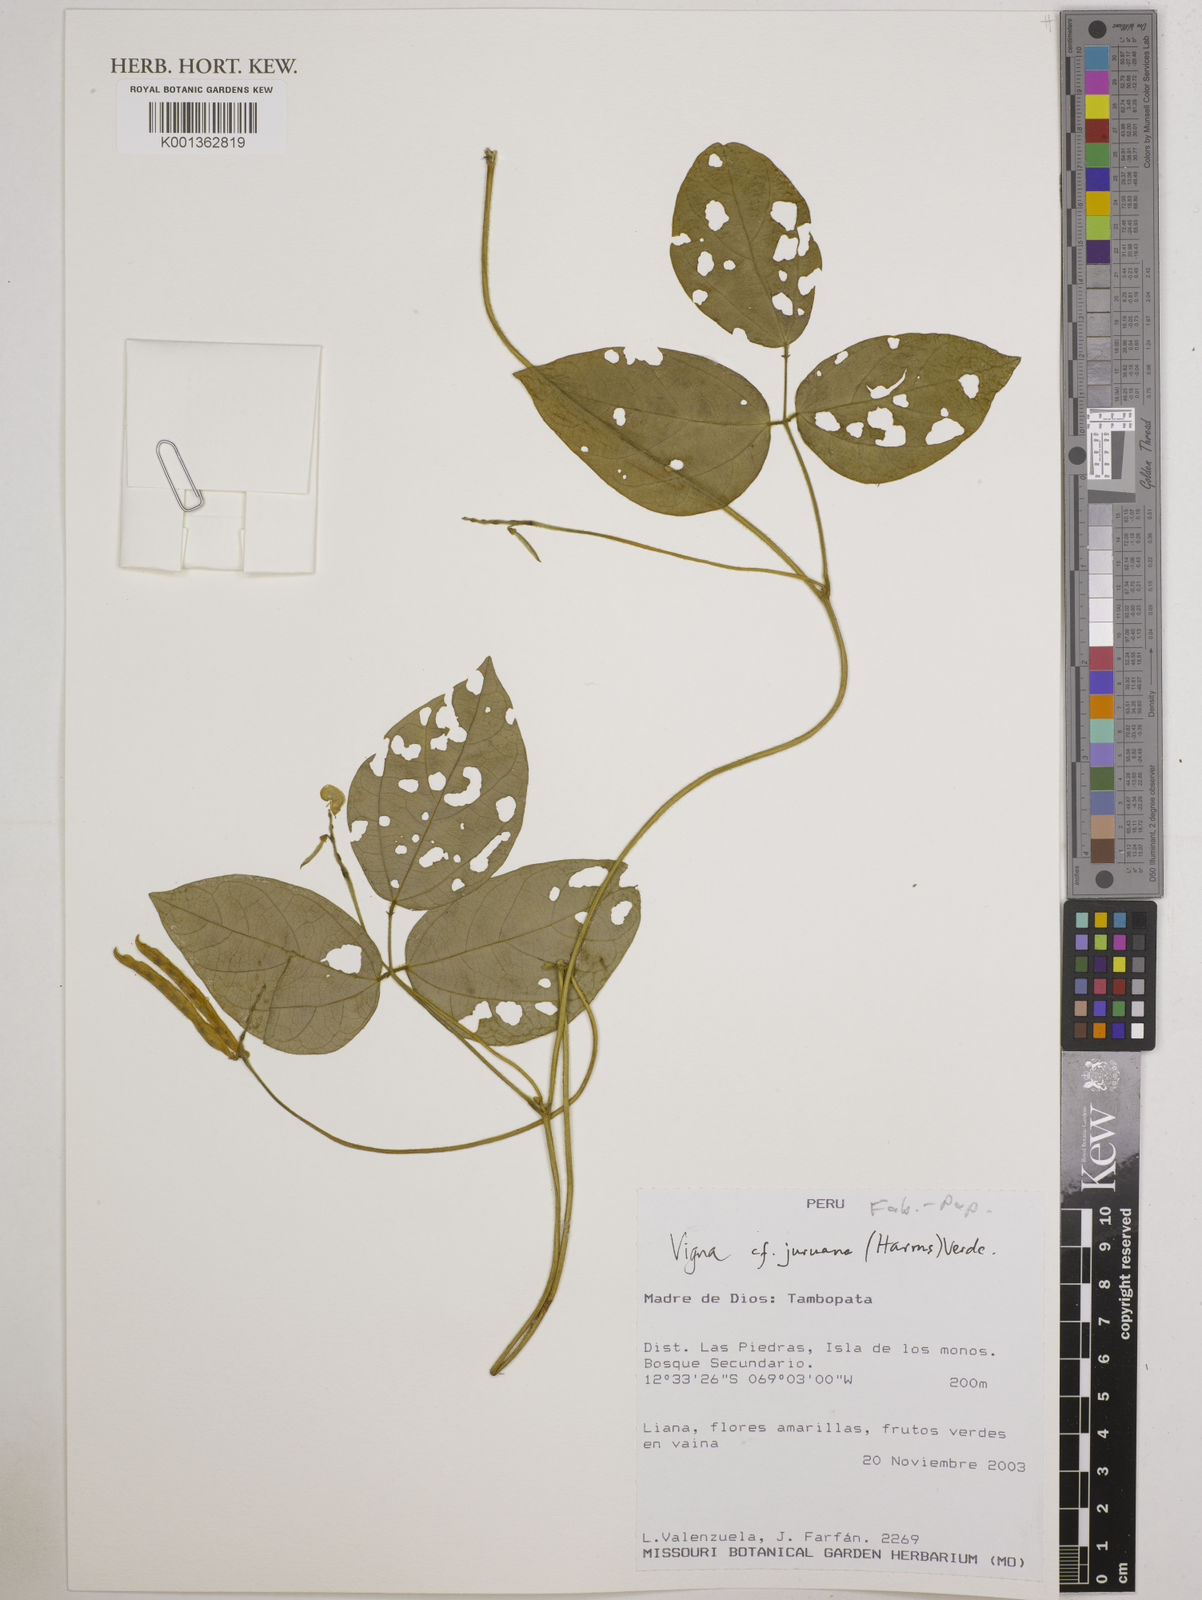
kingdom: Plantae
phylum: Tracheophyta
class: Magnoliopsida
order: Fabales
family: Fabaceae
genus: Vigna
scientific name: Vigna
